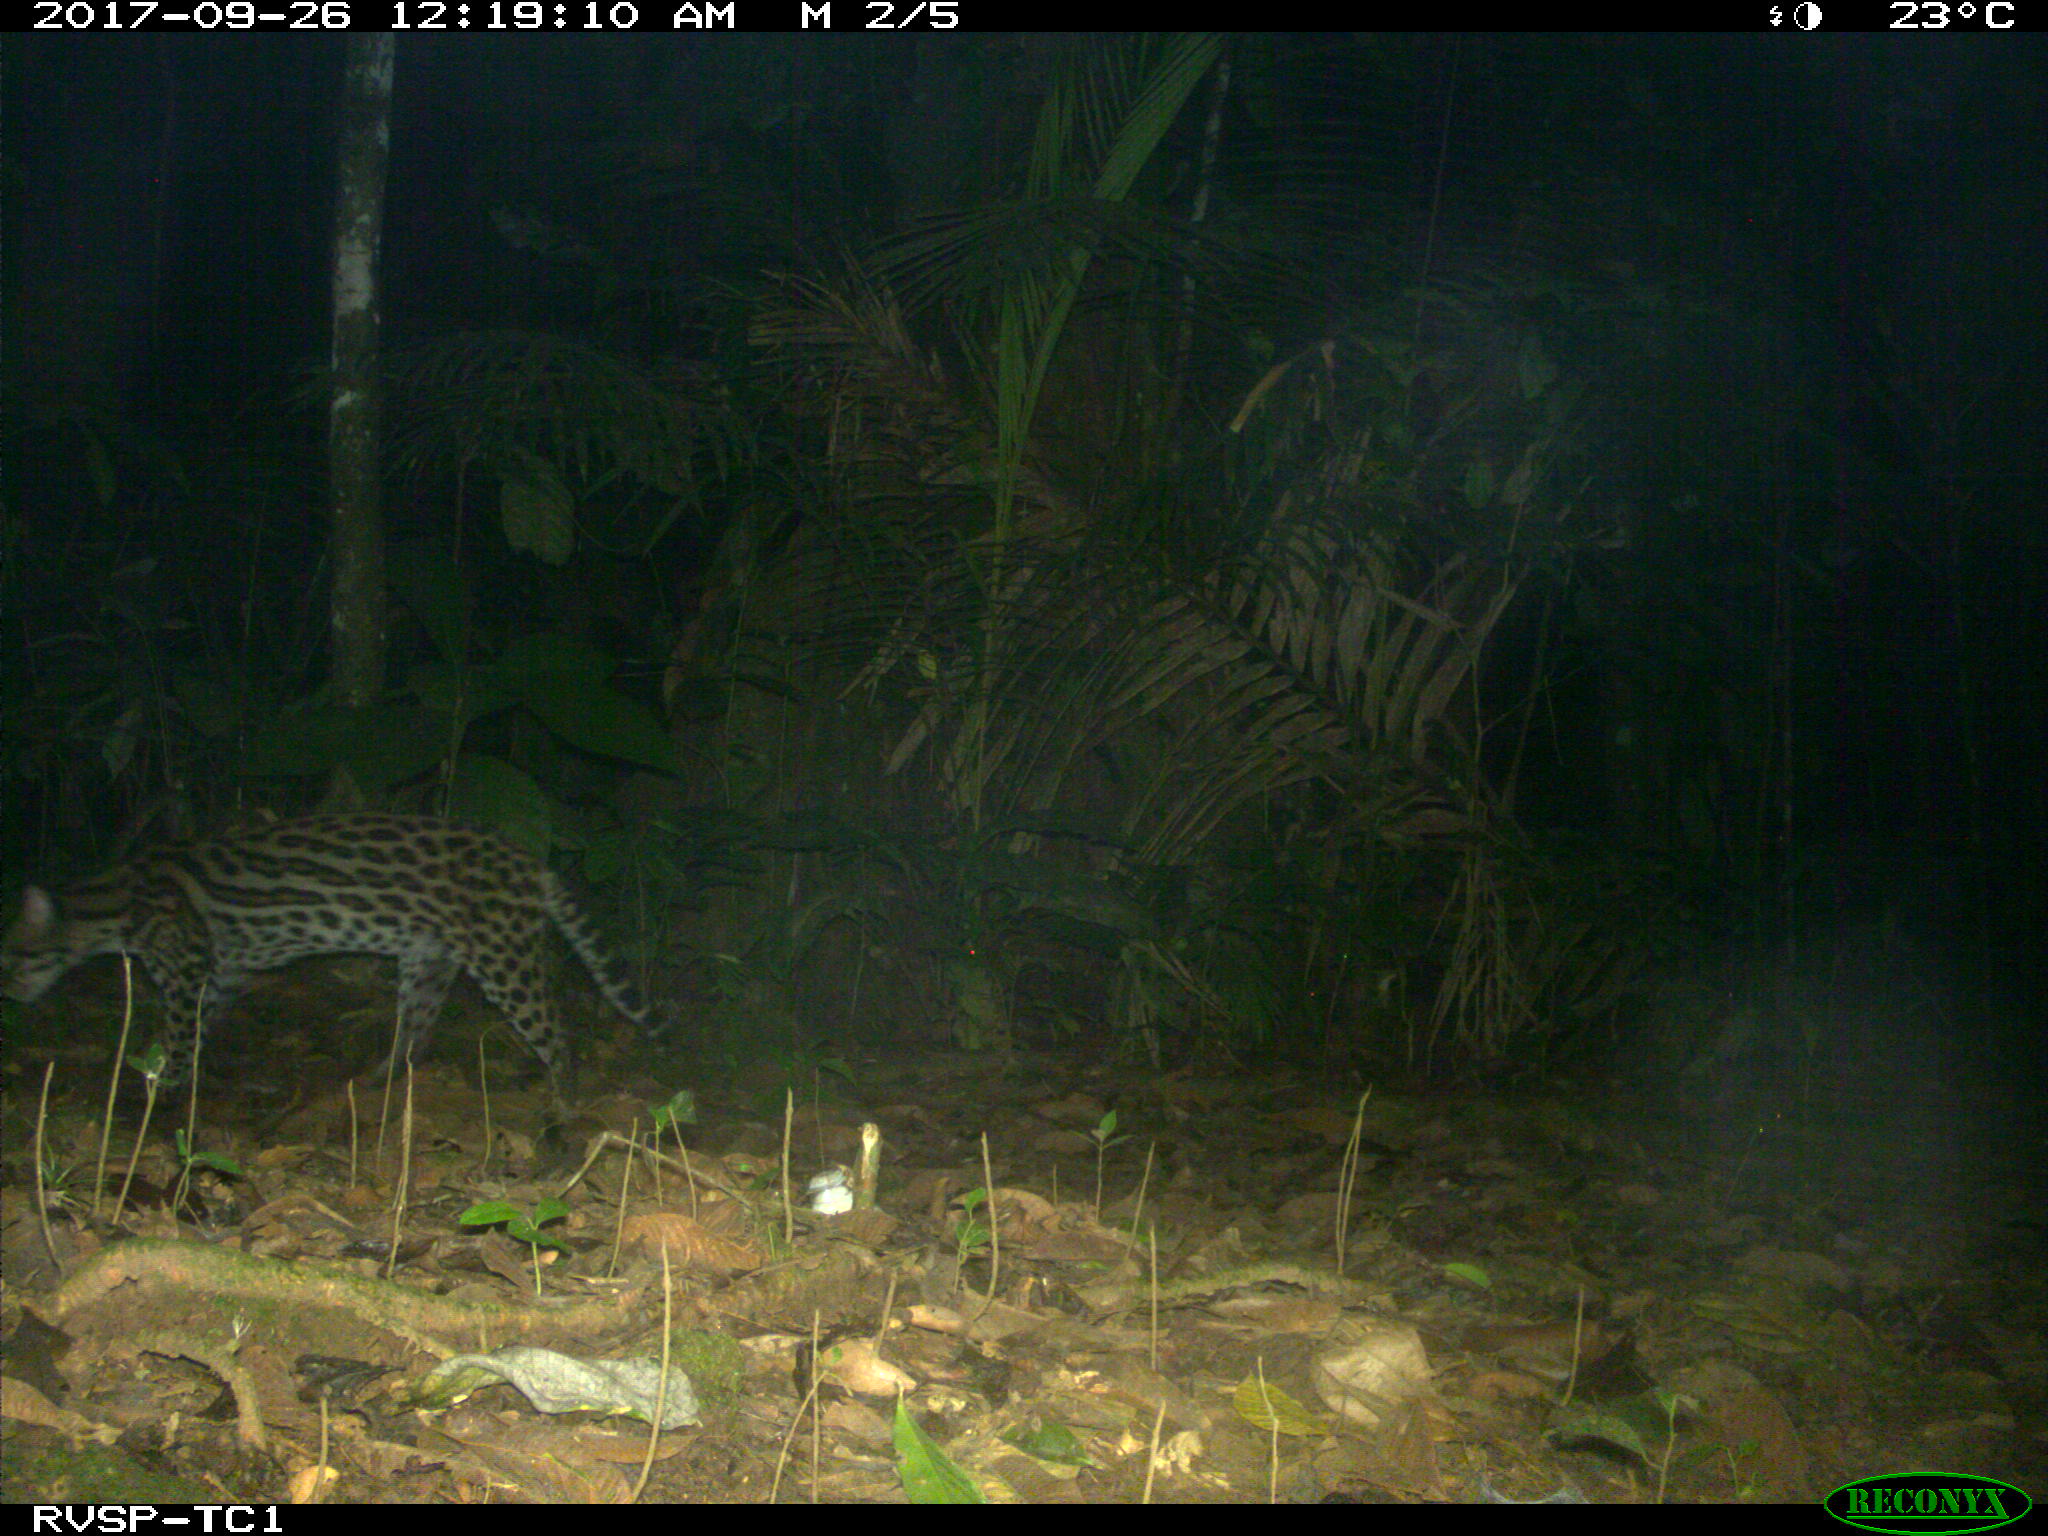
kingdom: Animalia
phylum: Chordata
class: Mammalia
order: Carnivora
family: Felidae
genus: Leopardus
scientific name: Leopardus pardalis
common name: Ocelot
